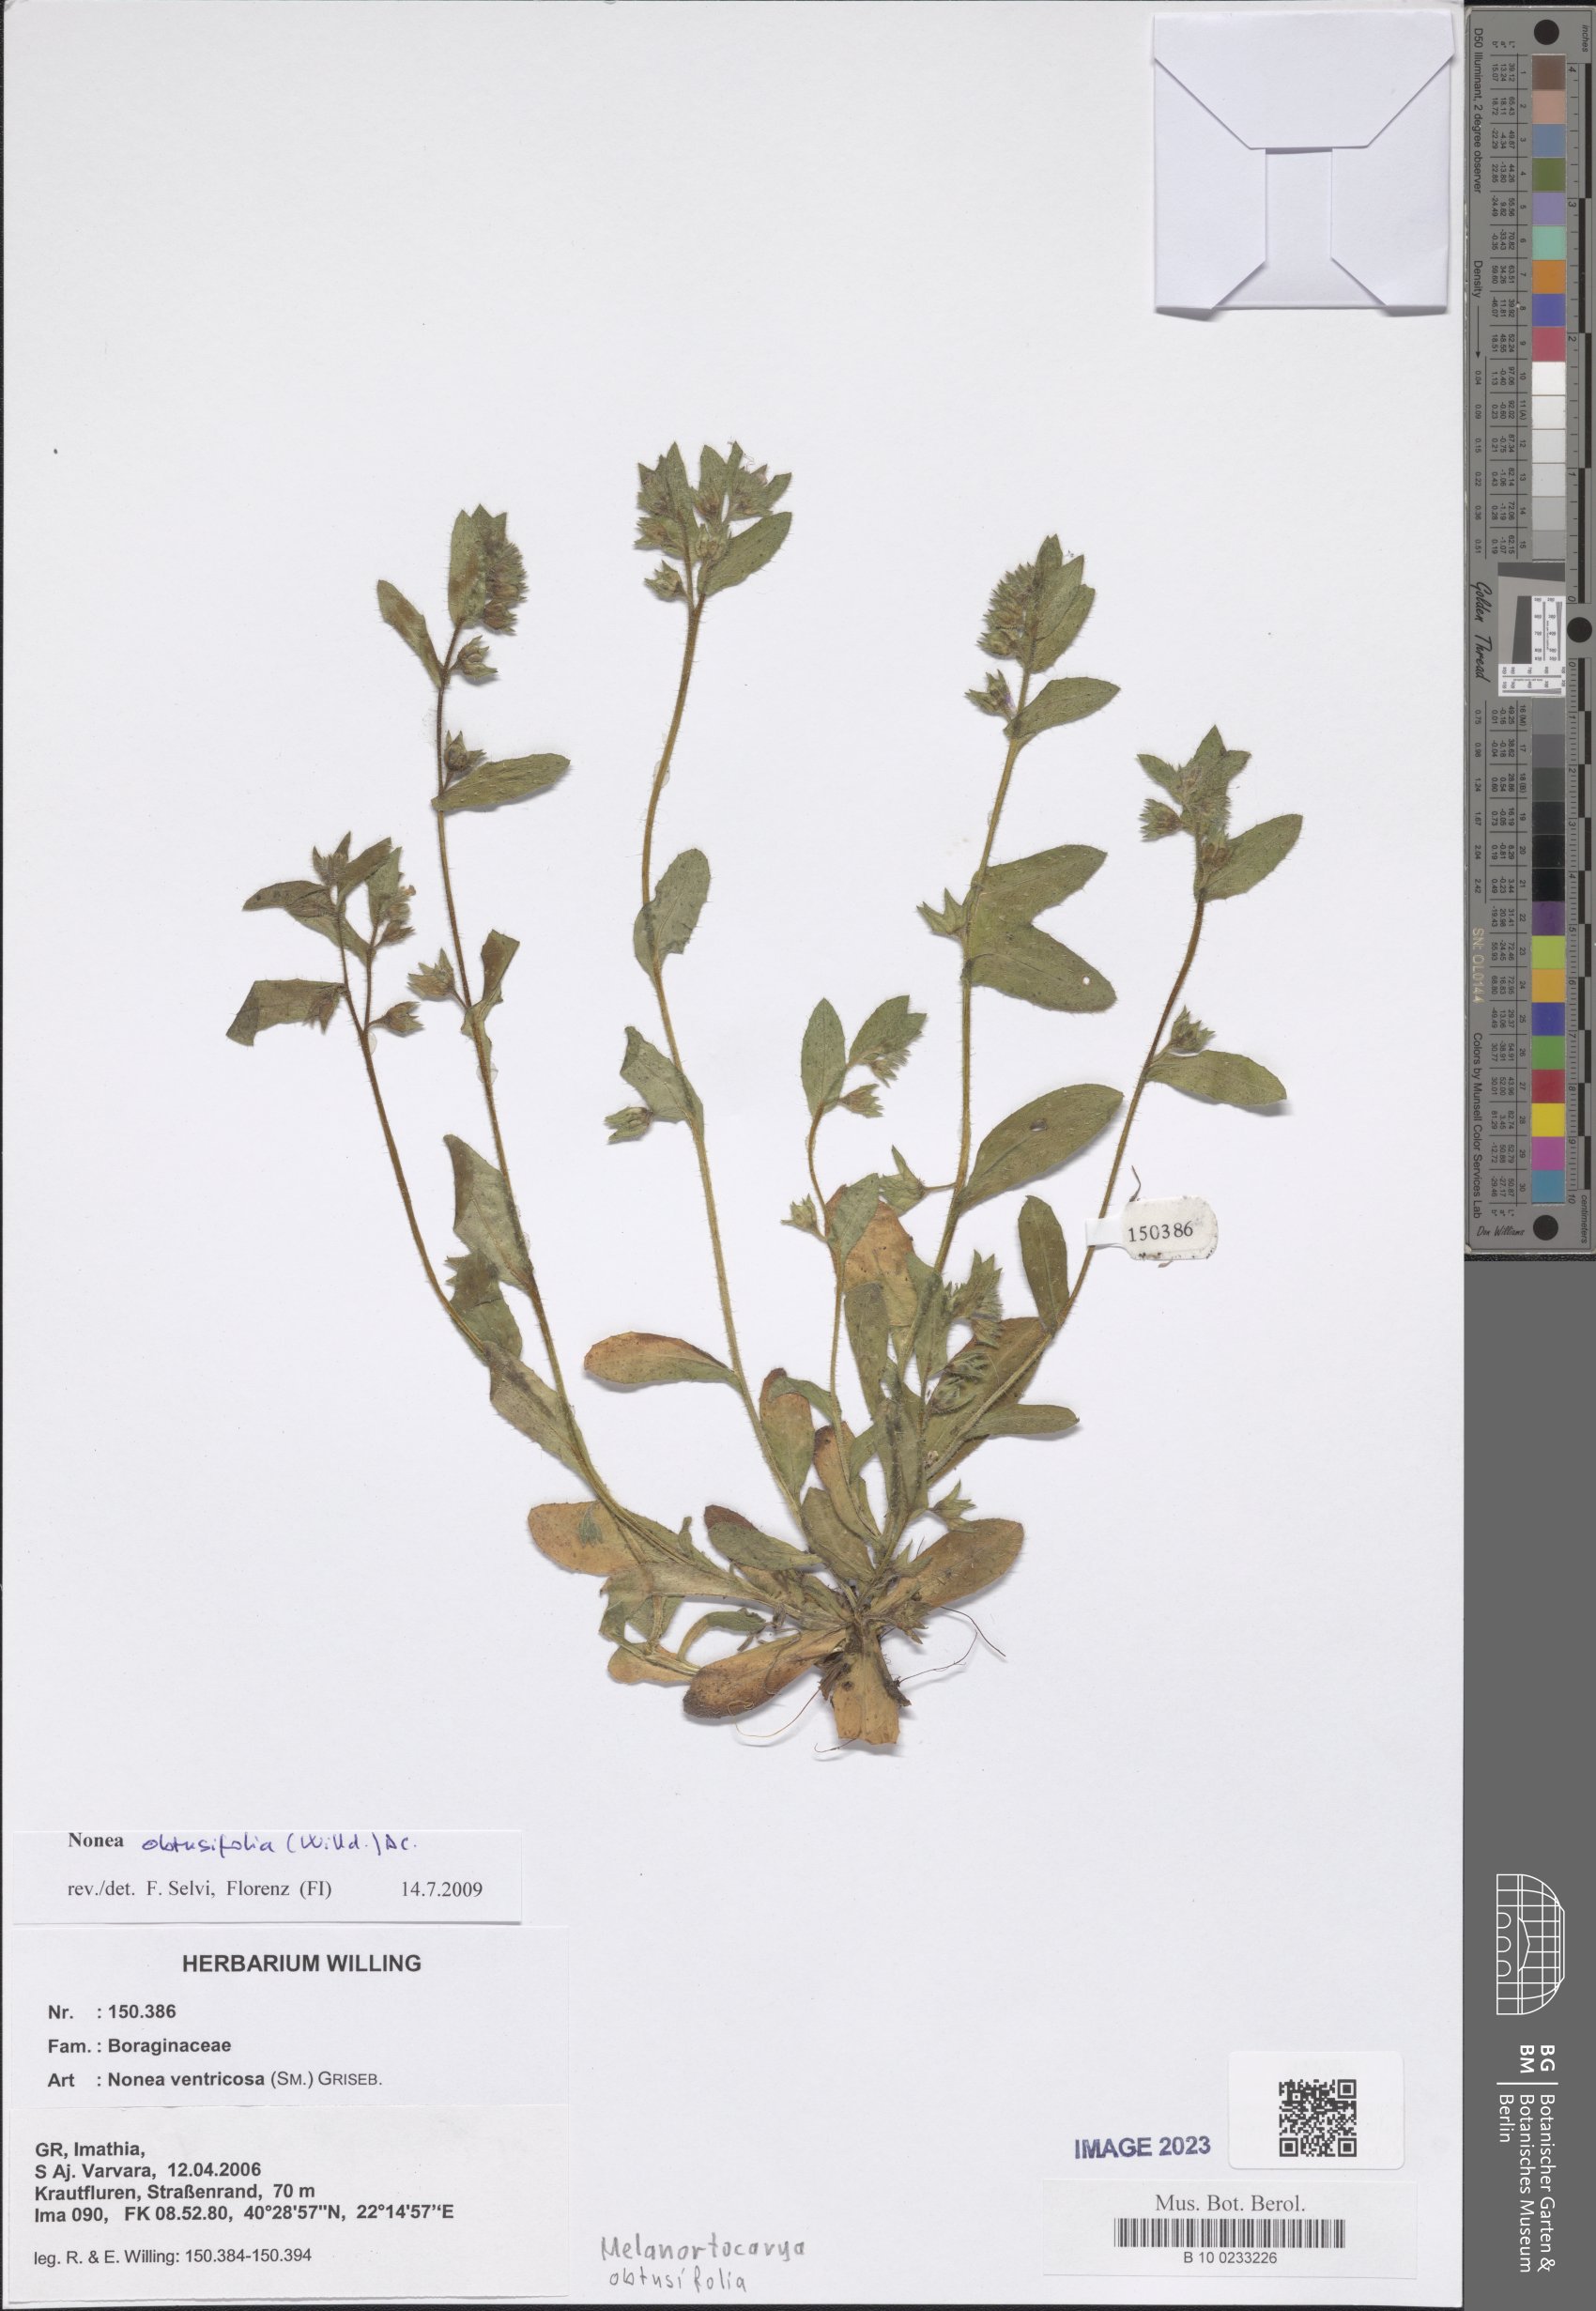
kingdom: Plantae
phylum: Tracheophyta
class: Magnoliopsida
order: Boraginales
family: Boraginaceae
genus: Melanortocarya
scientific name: Melanortocarya obtusifolia
